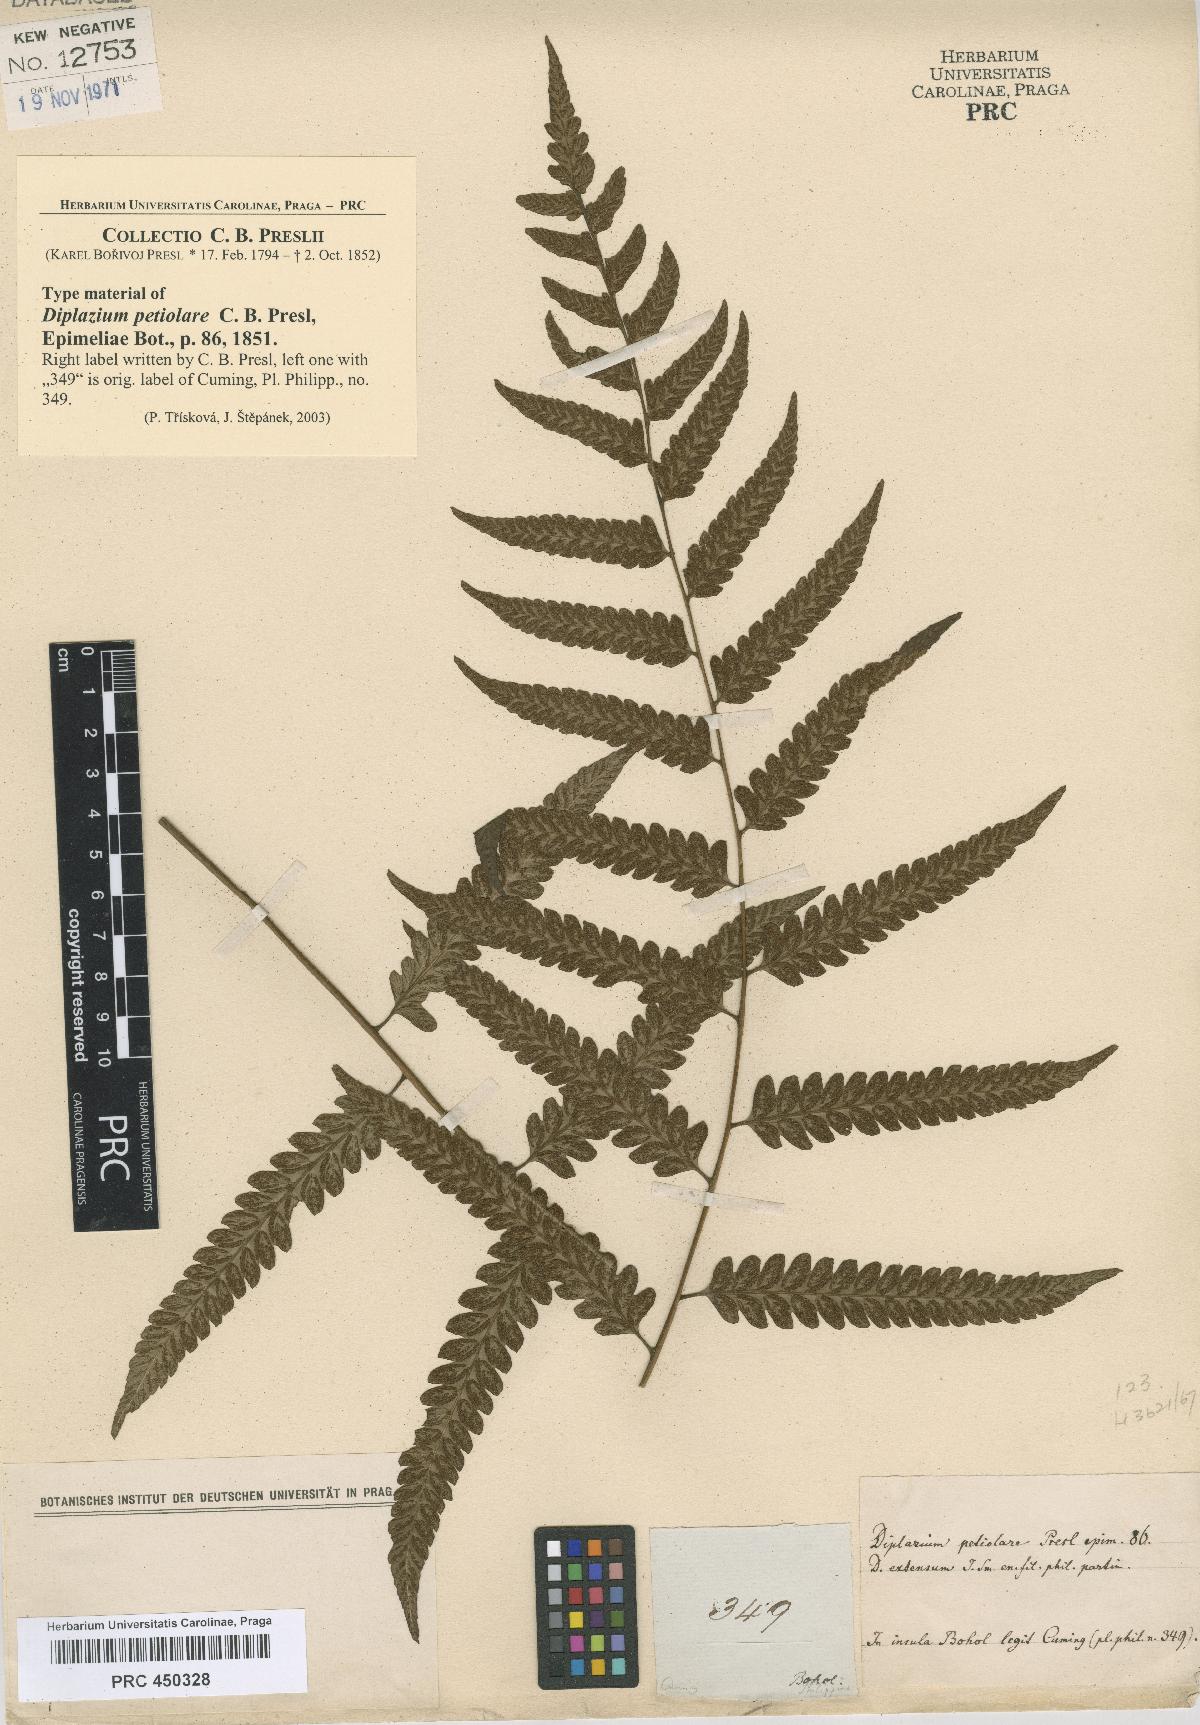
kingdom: Plantae
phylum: Tracheophyta
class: Polypodiopsida
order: Polypodiales
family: Athyriaceae
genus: Diplazium
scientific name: Diplazium petiolare
